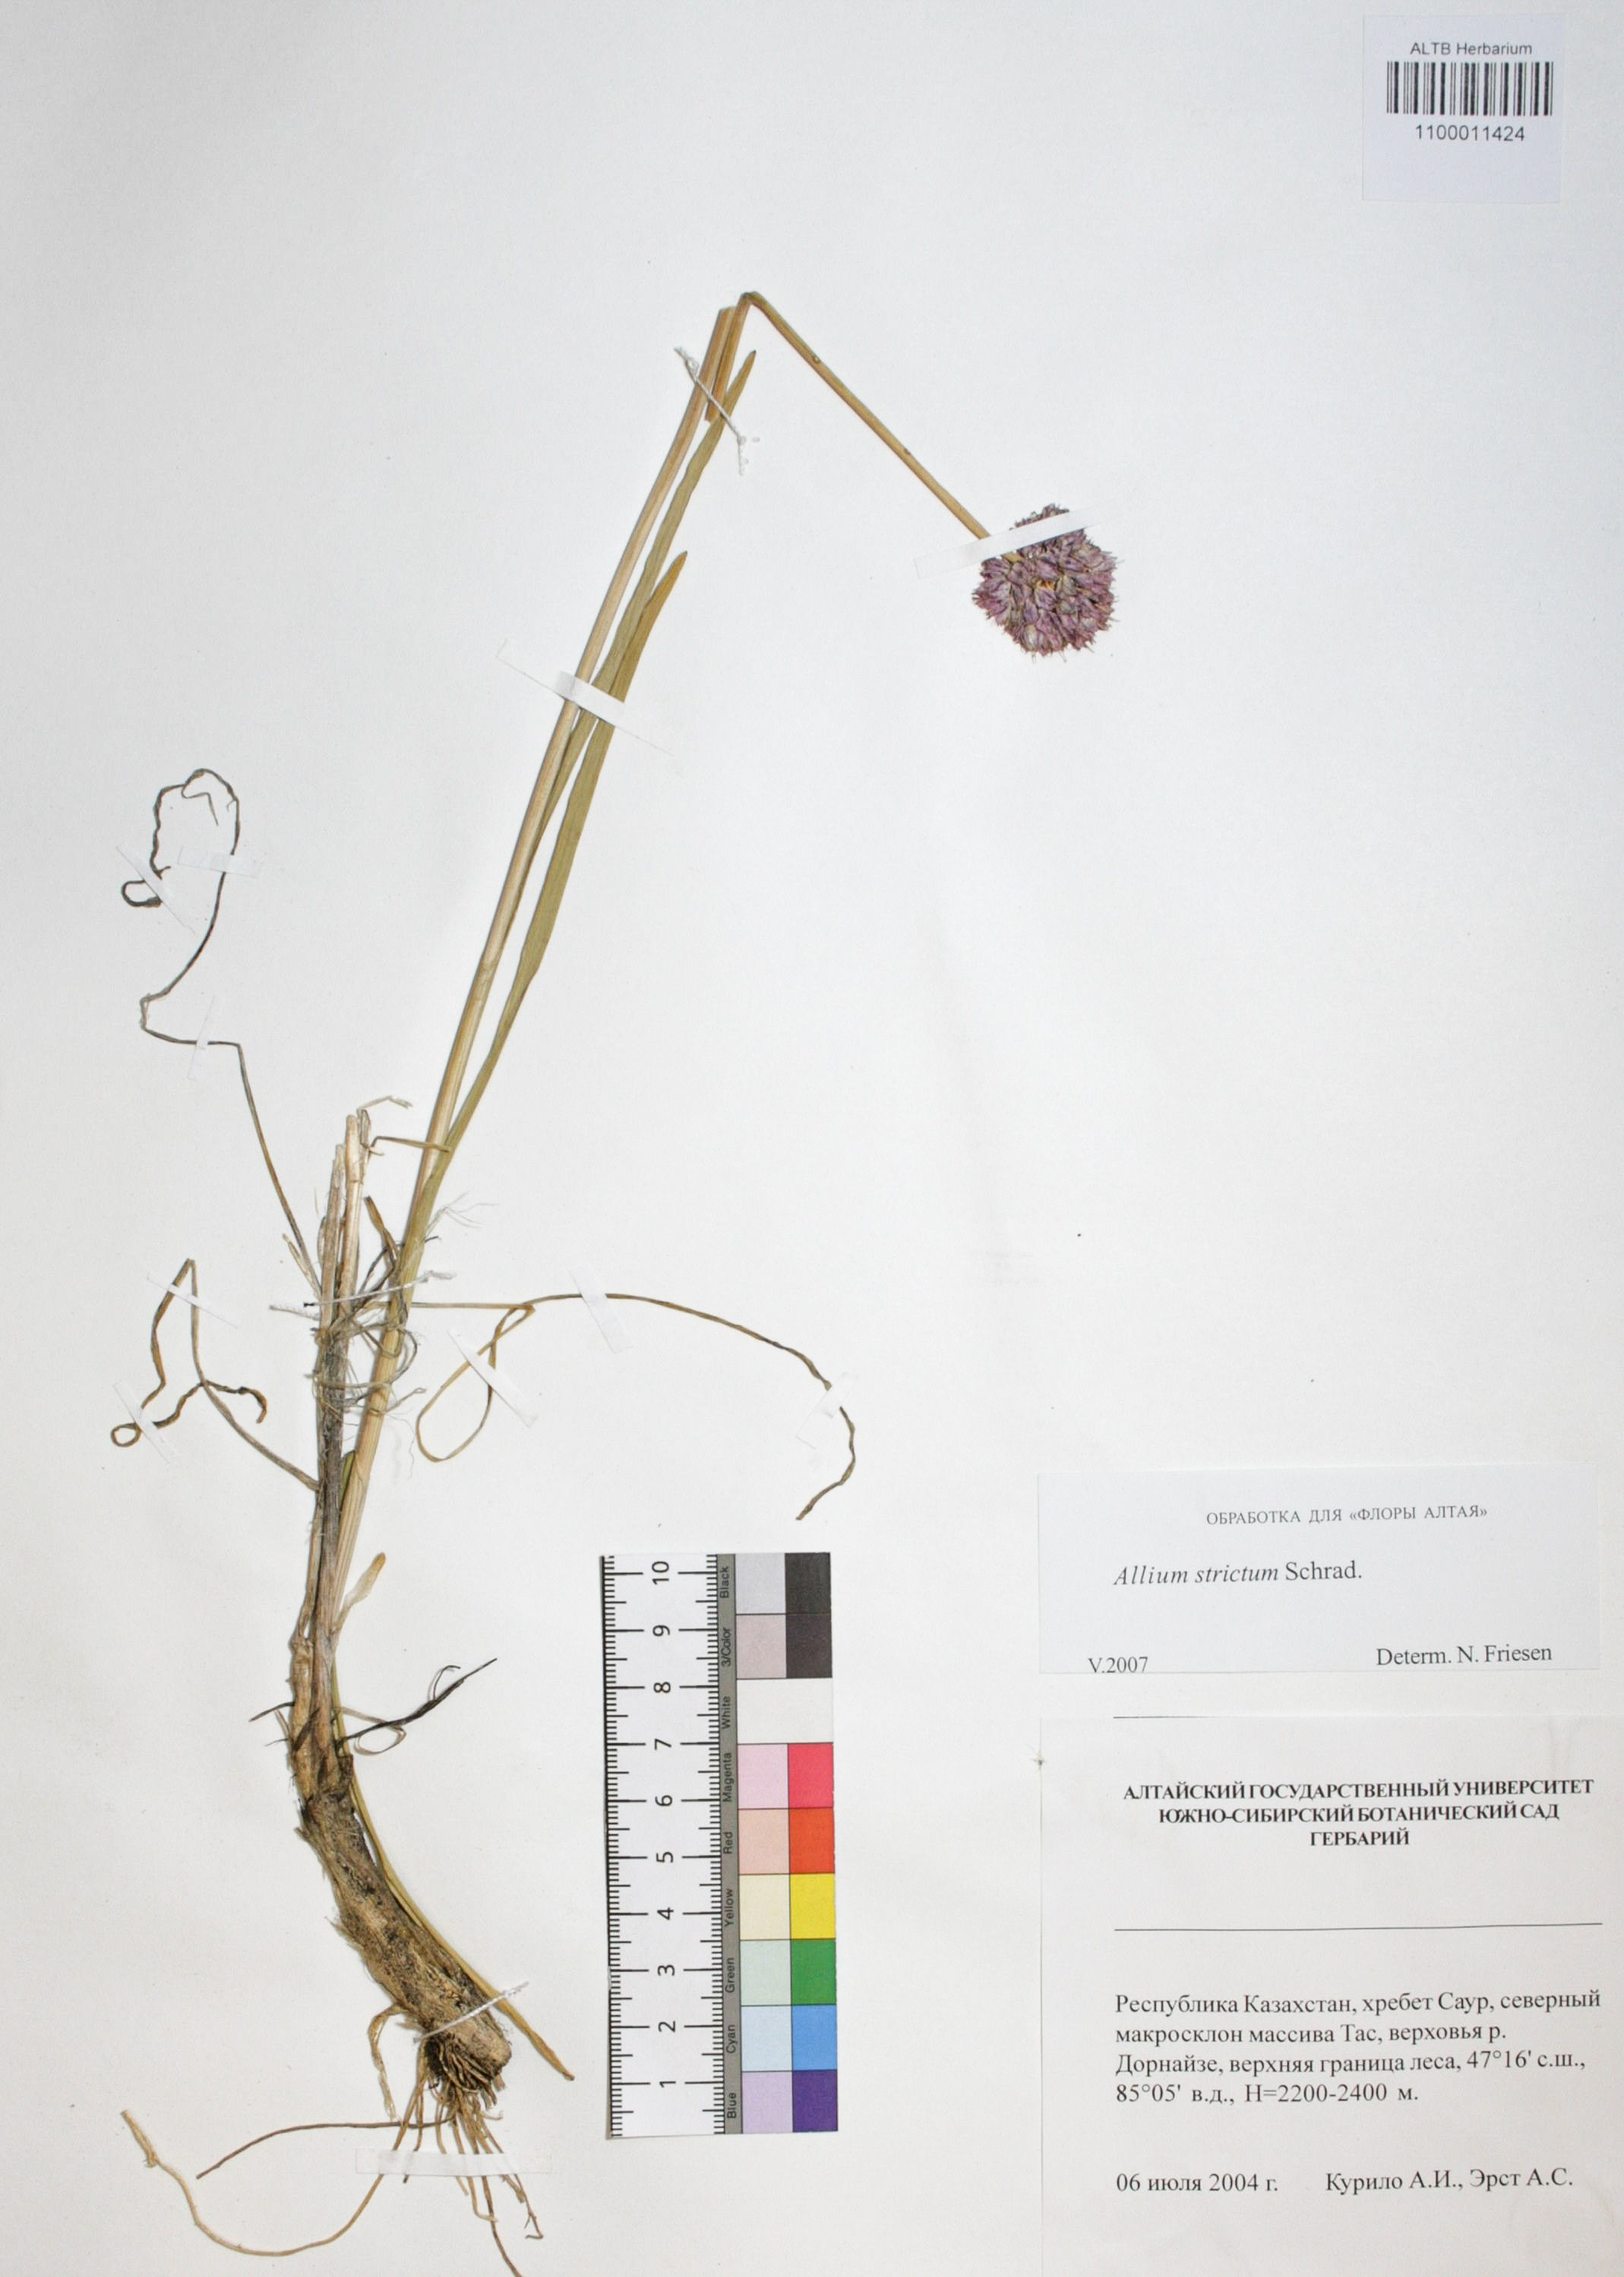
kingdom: Plantae
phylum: Tracheophyta
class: Liliopsida
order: Asparagales
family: Amaryllidaceae
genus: Allium
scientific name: Allium strictum
